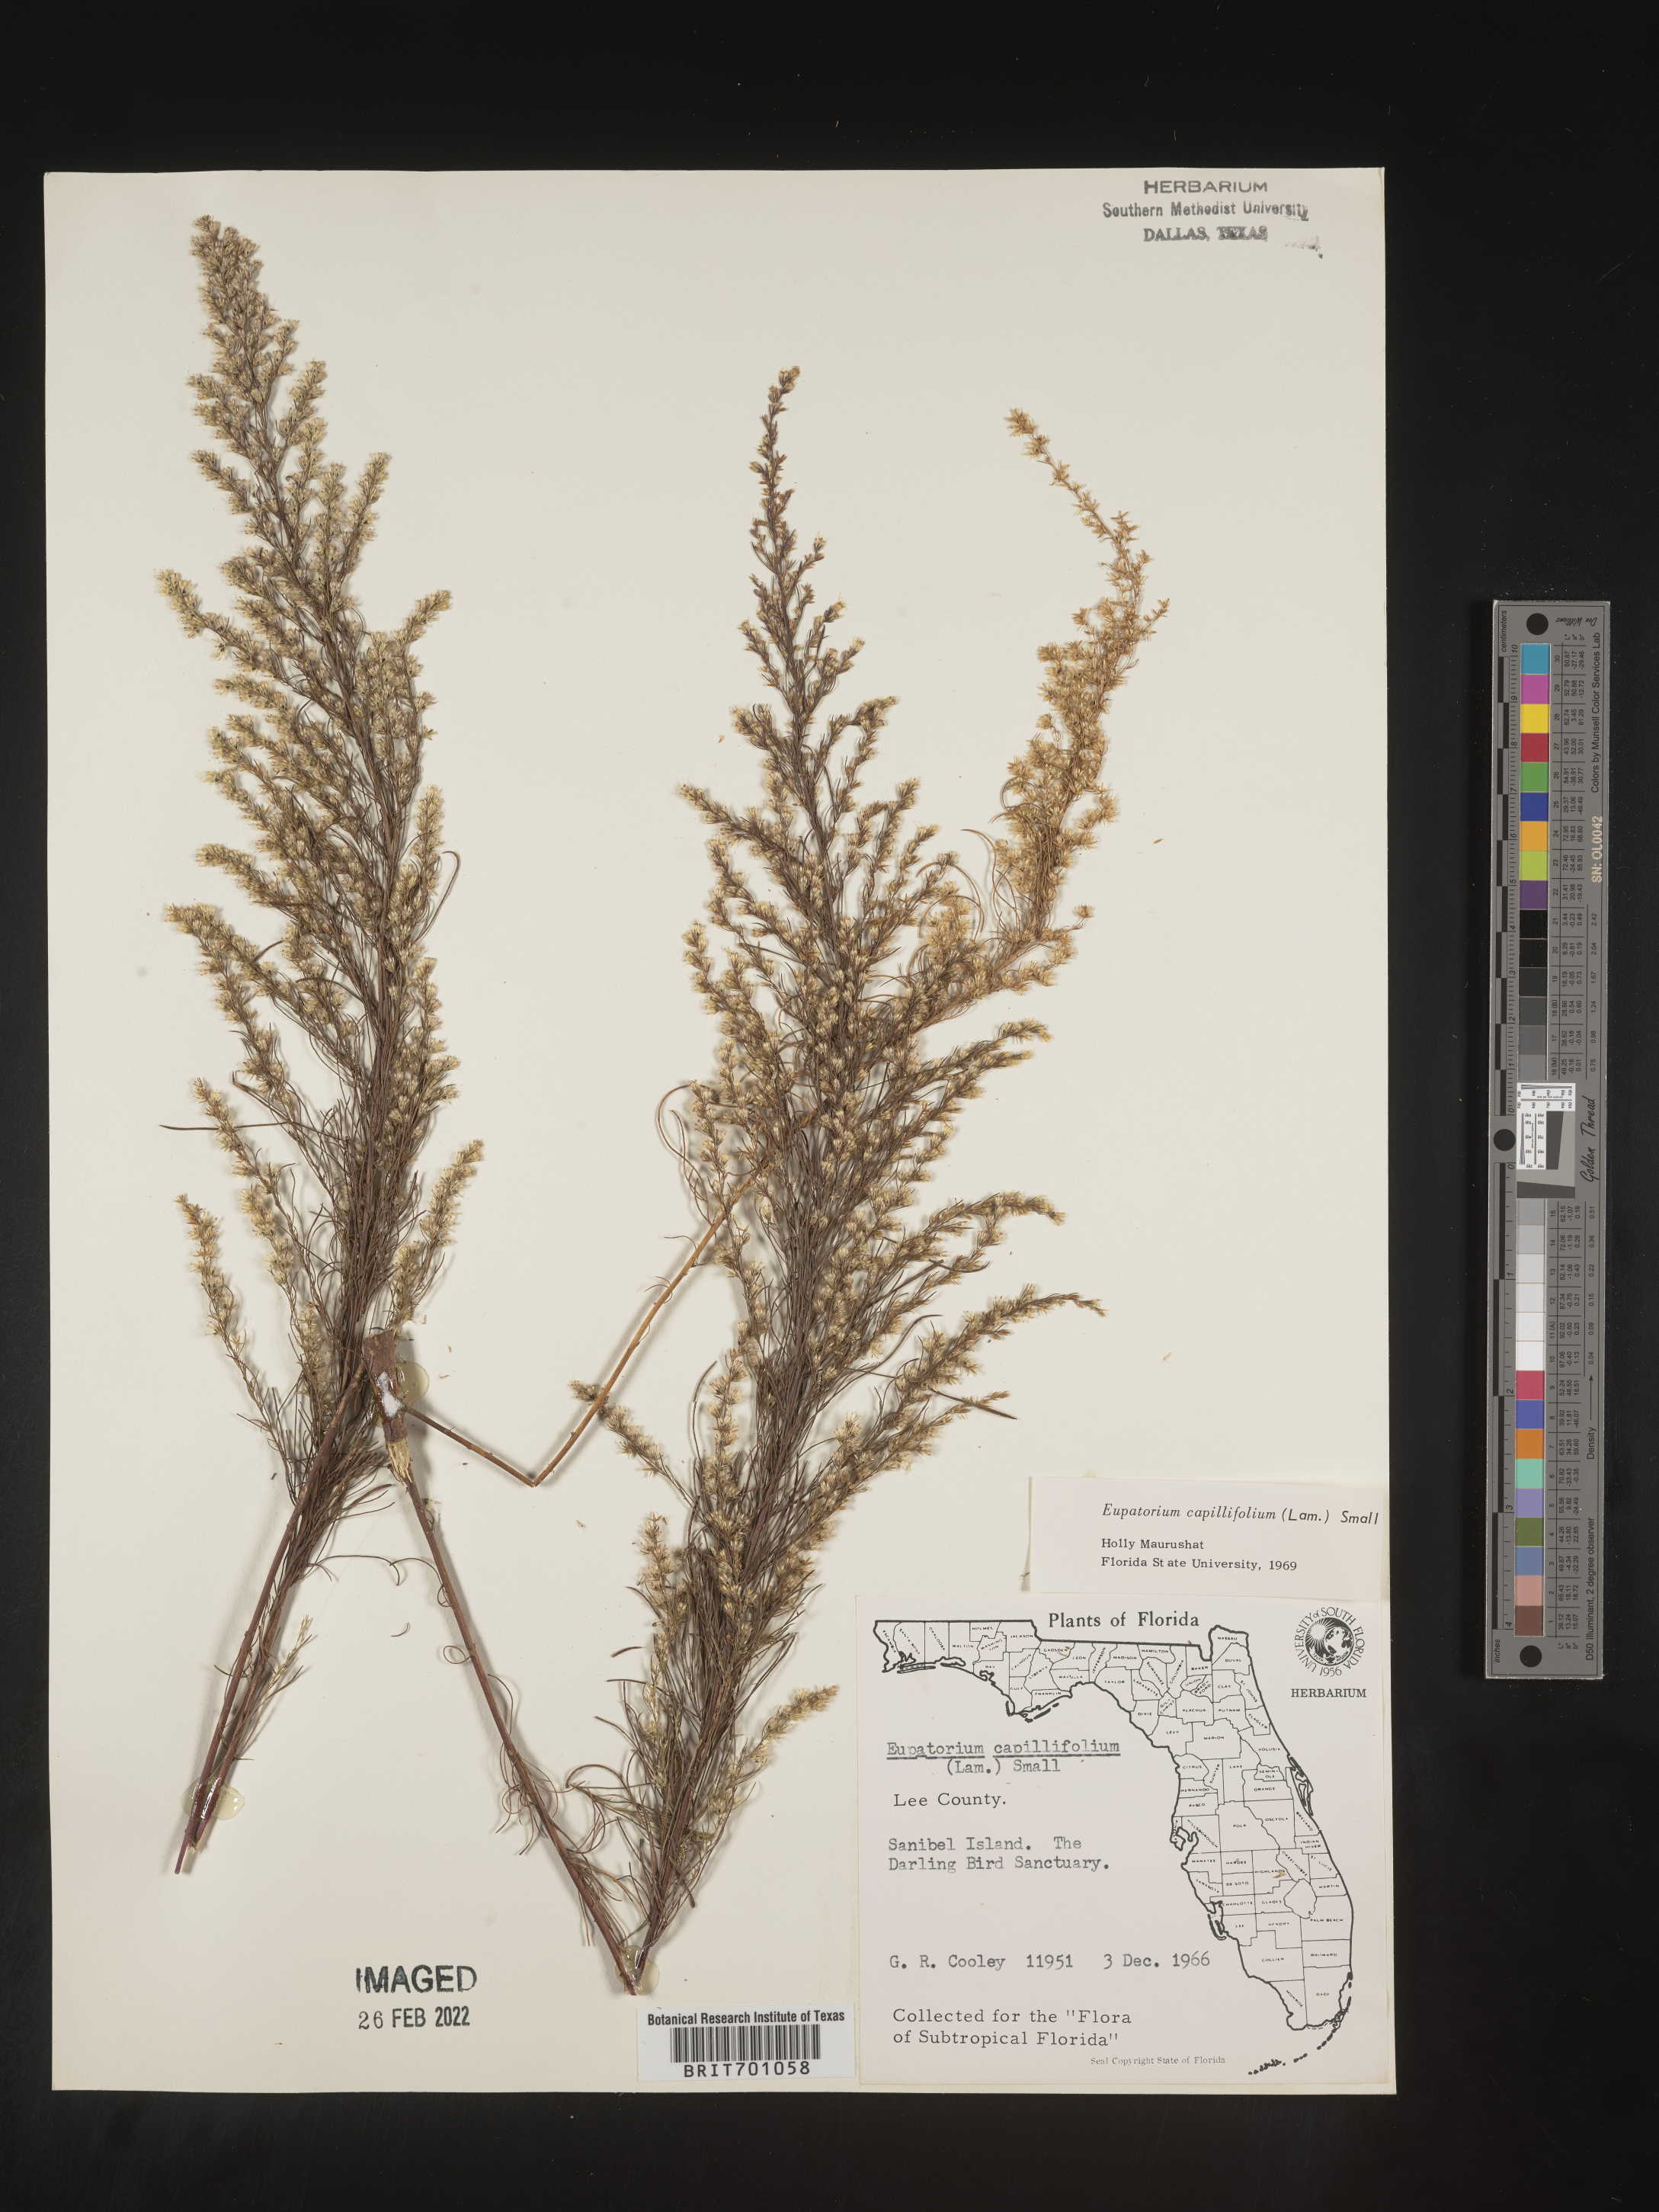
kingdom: Plantae
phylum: Tracheophyta
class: Magnoliopsida
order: Asterales
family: Asteraceae
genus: Eupatorium
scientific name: Eupatorium capillifolium
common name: Dog-fennel
